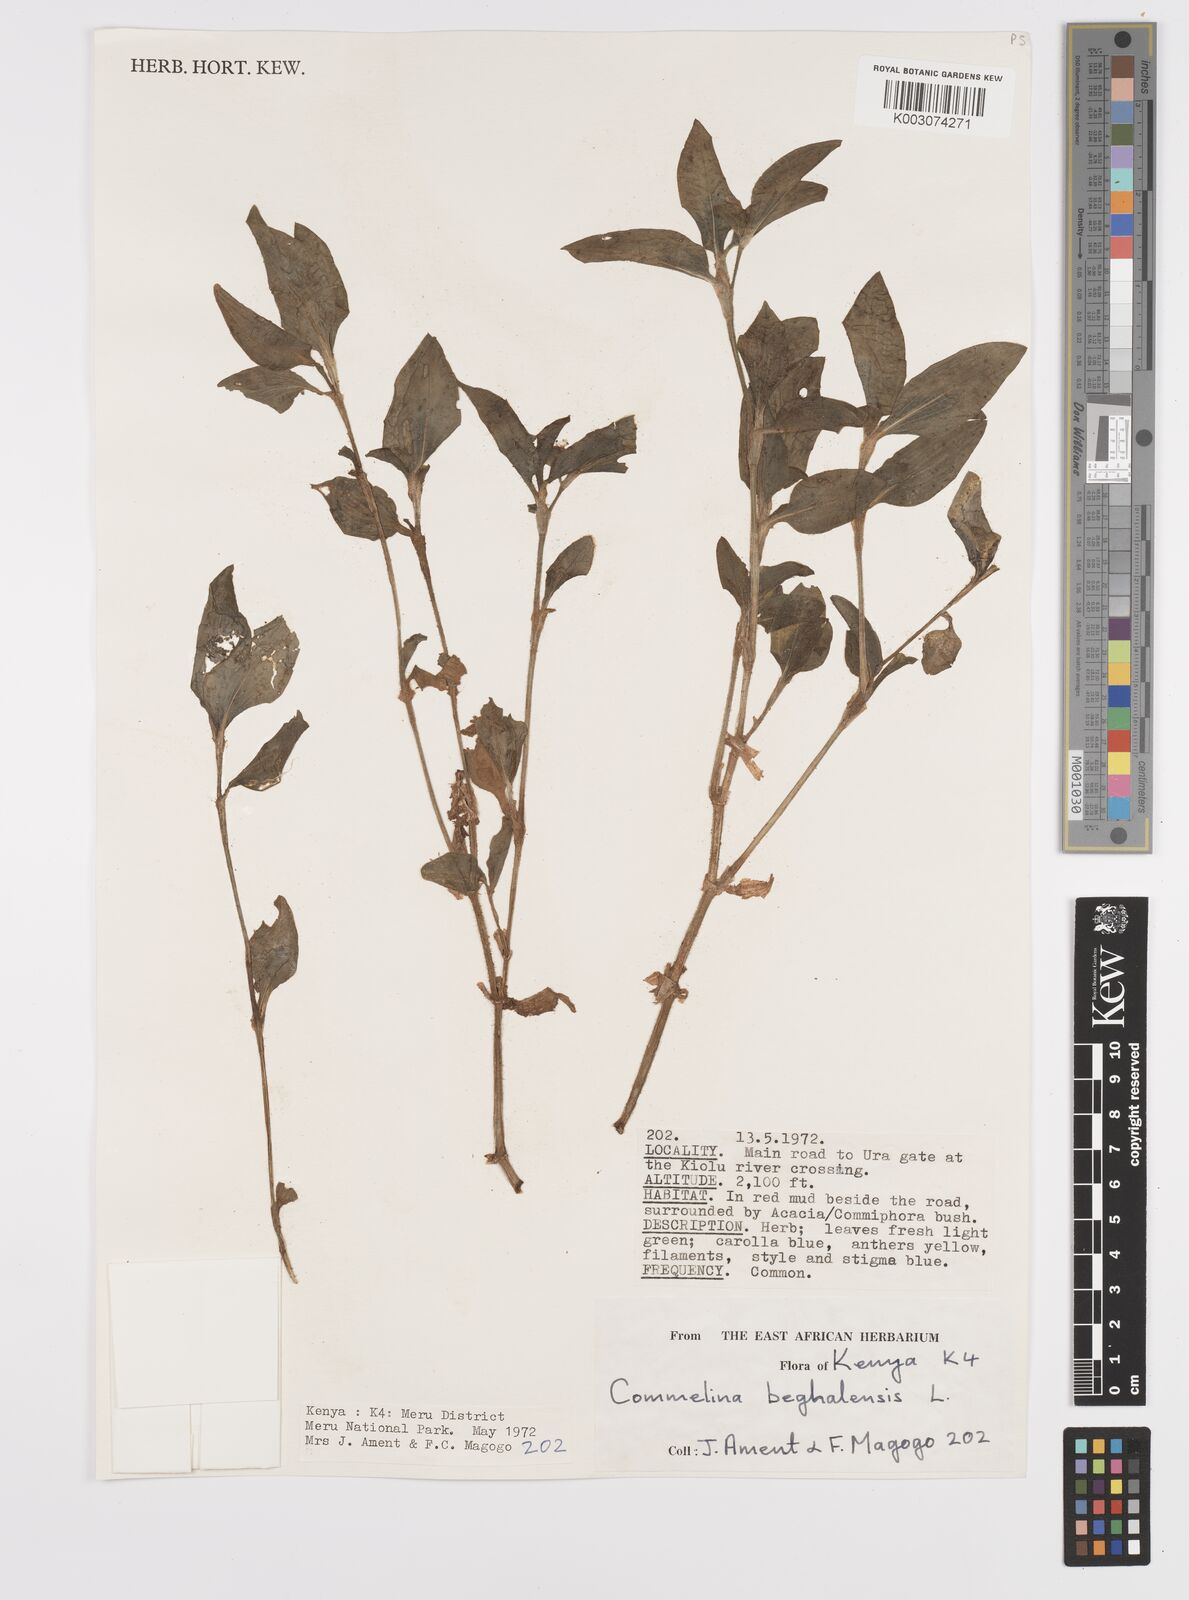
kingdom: Plantae
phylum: Tracheophyta
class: Liliopsida
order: Commelinales
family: Commelinaceae
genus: Commelina
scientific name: Commelina benghalensis
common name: Jio
